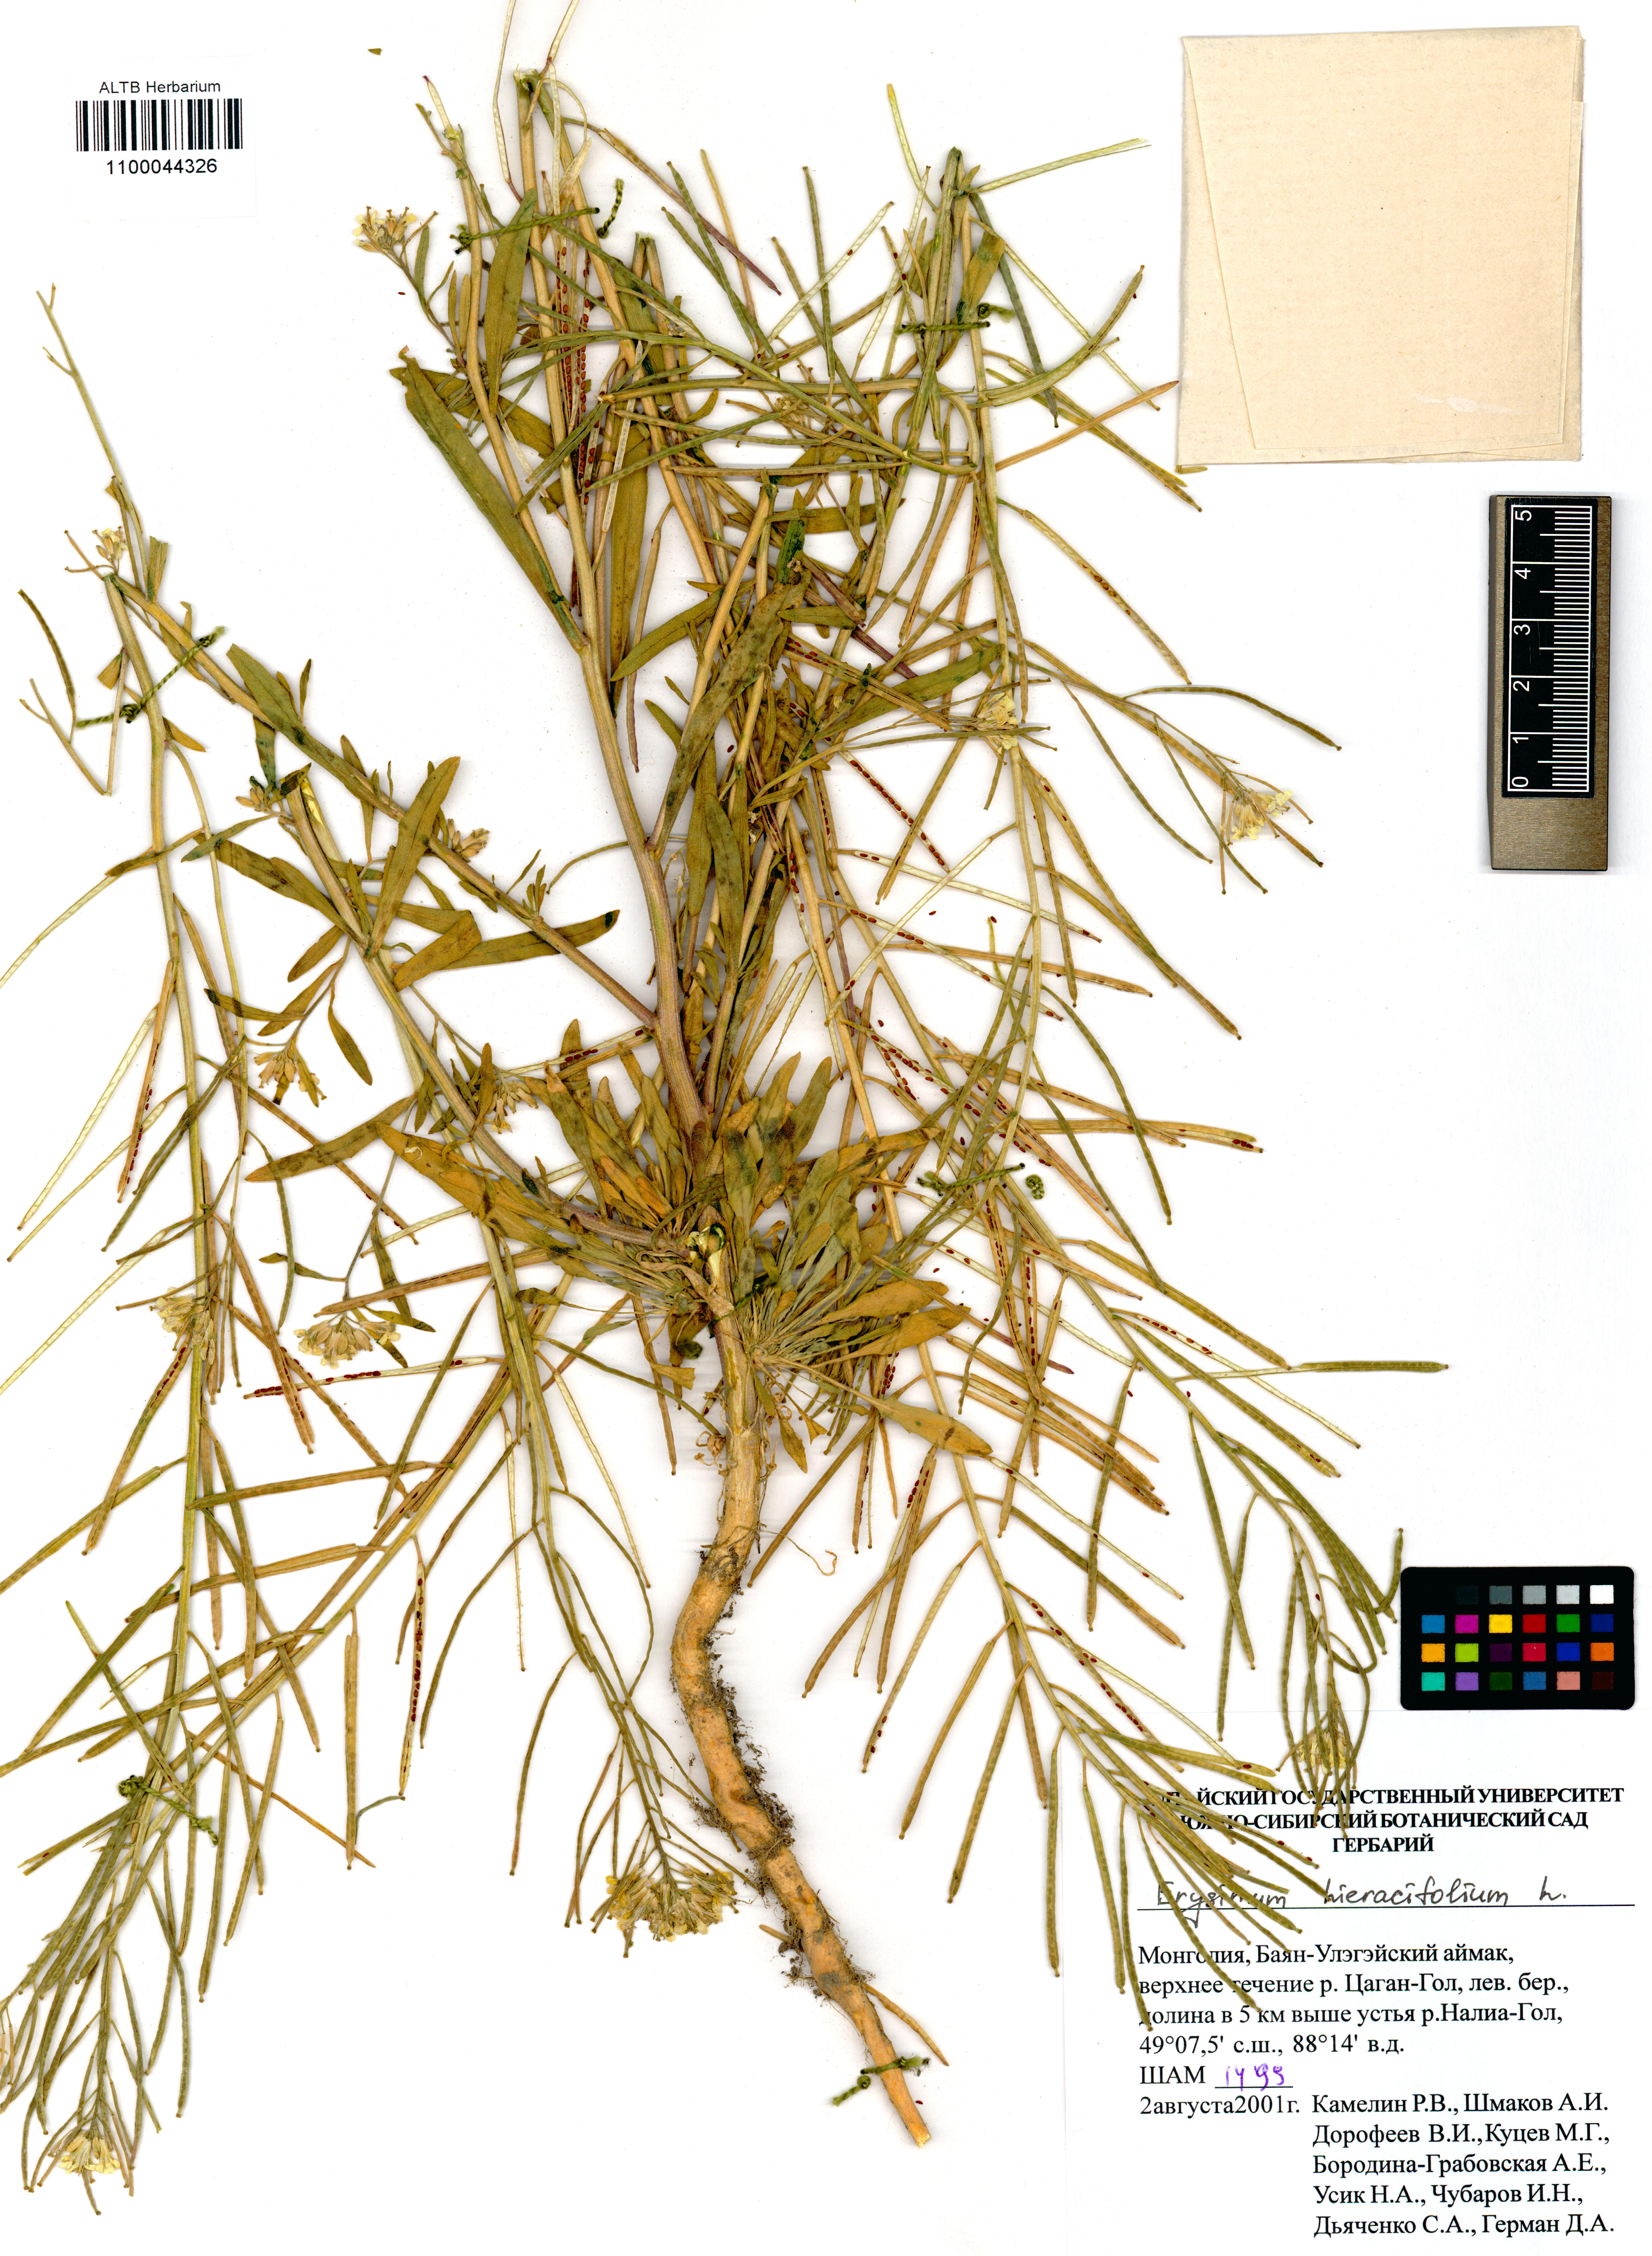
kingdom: Plantae
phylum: Tracheophyta
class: Magnoliopsida
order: Brassicales
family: Brassicaceae
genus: Erysimum
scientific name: Erysimum hieraciifolium
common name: European wallflower
